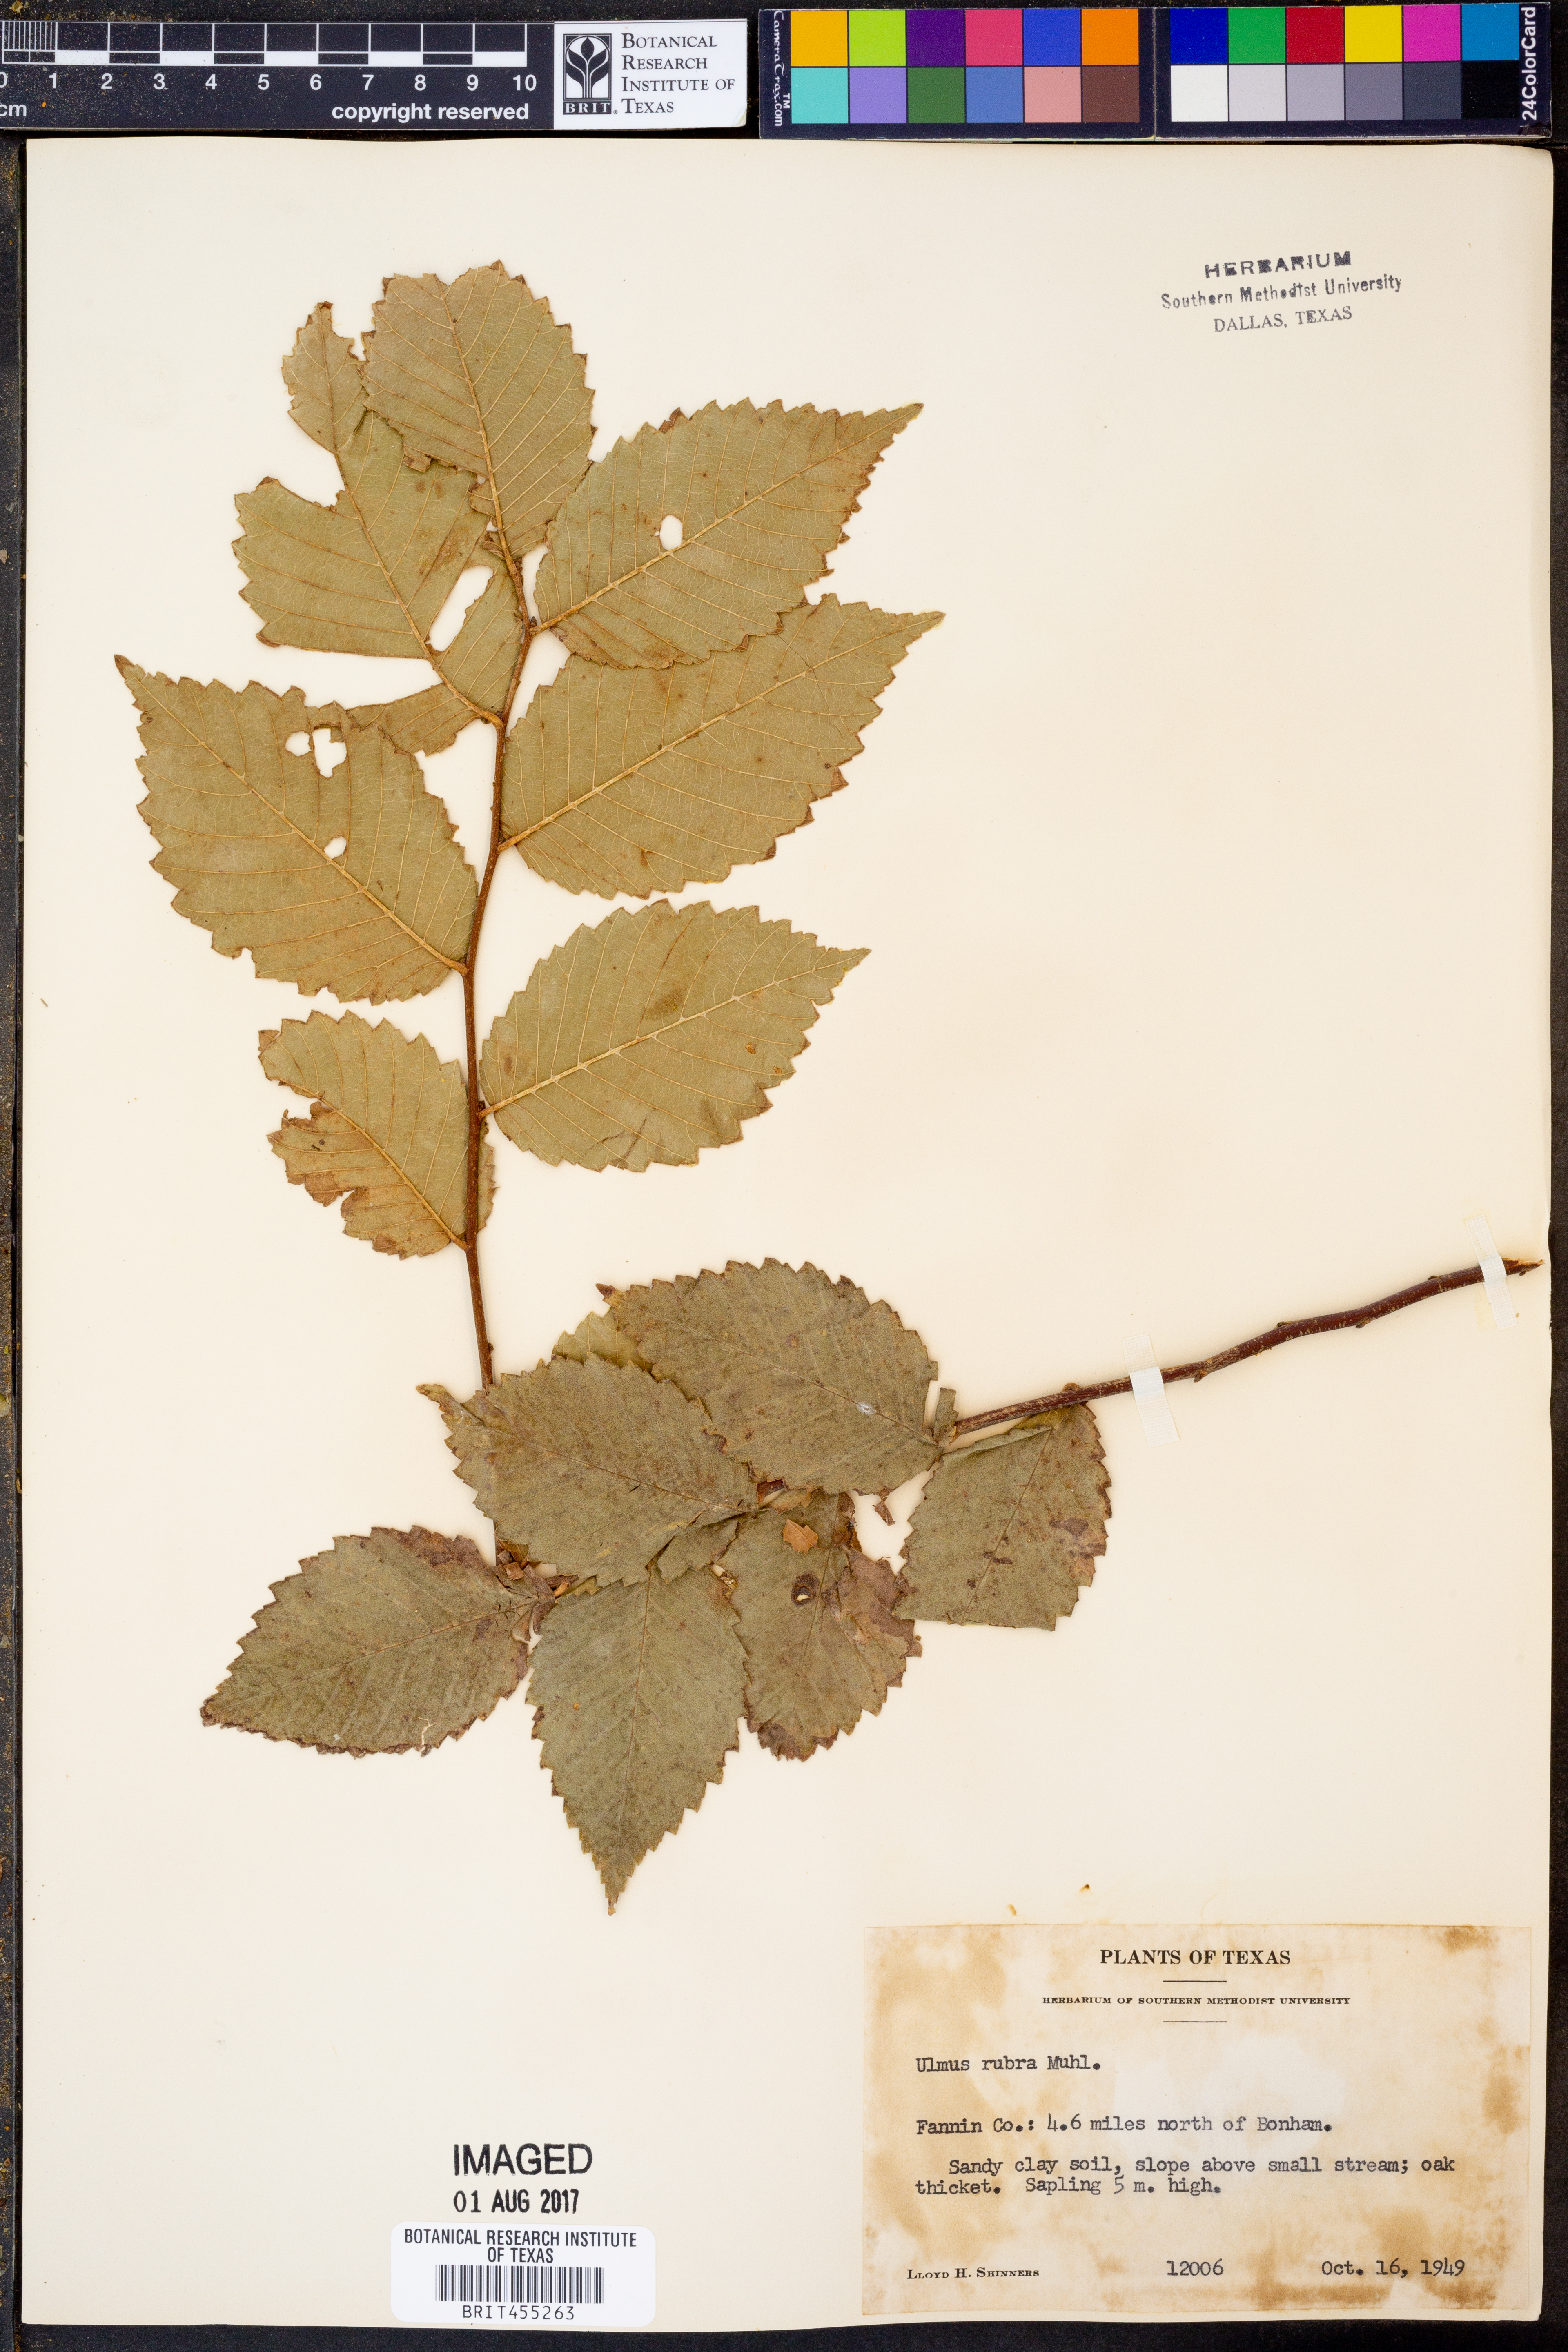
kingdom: Plantae
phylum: Tracheophyta
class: Magnoliopsida
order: Rosales
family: Ulmaceae
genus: Ulmus
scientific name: Ulmus rubra
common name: Slippery elm
